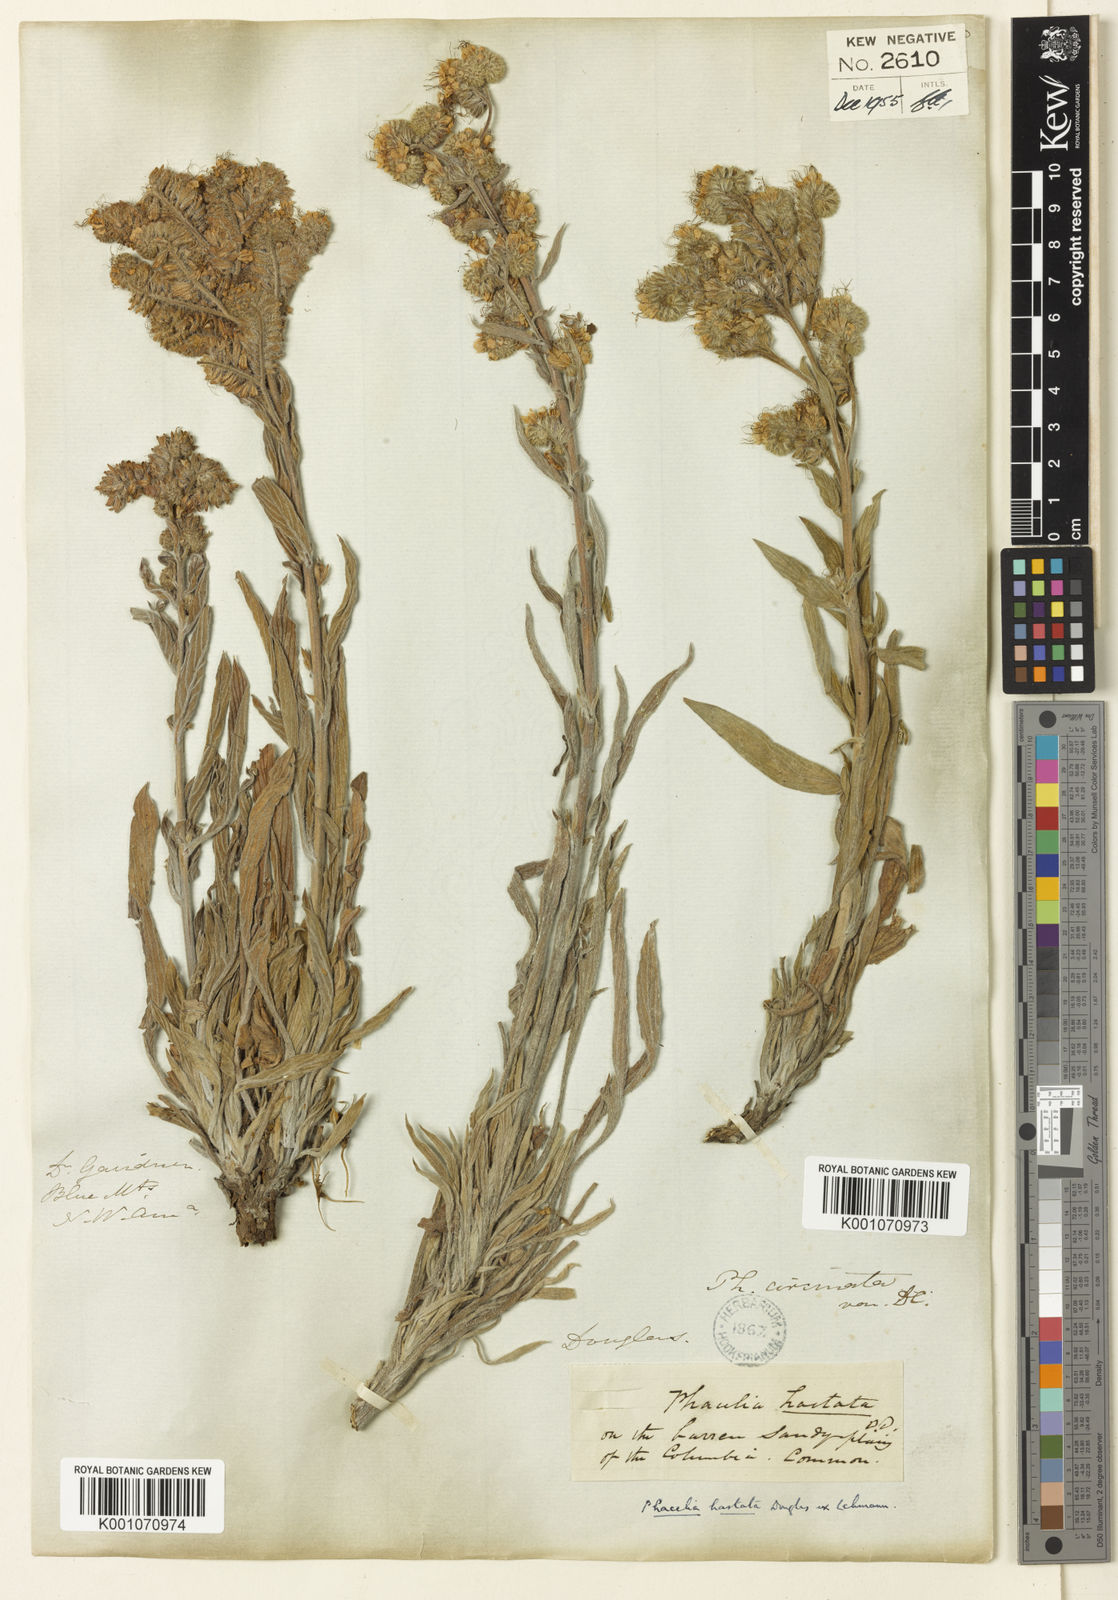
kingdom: Plantae
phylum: Tracheophyta
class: Magnoliopsida
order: Boraginales
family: Hydrophyllaceae
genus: Phacelia
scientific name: Phacelia hastata
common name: Silver-leaved phacelia
